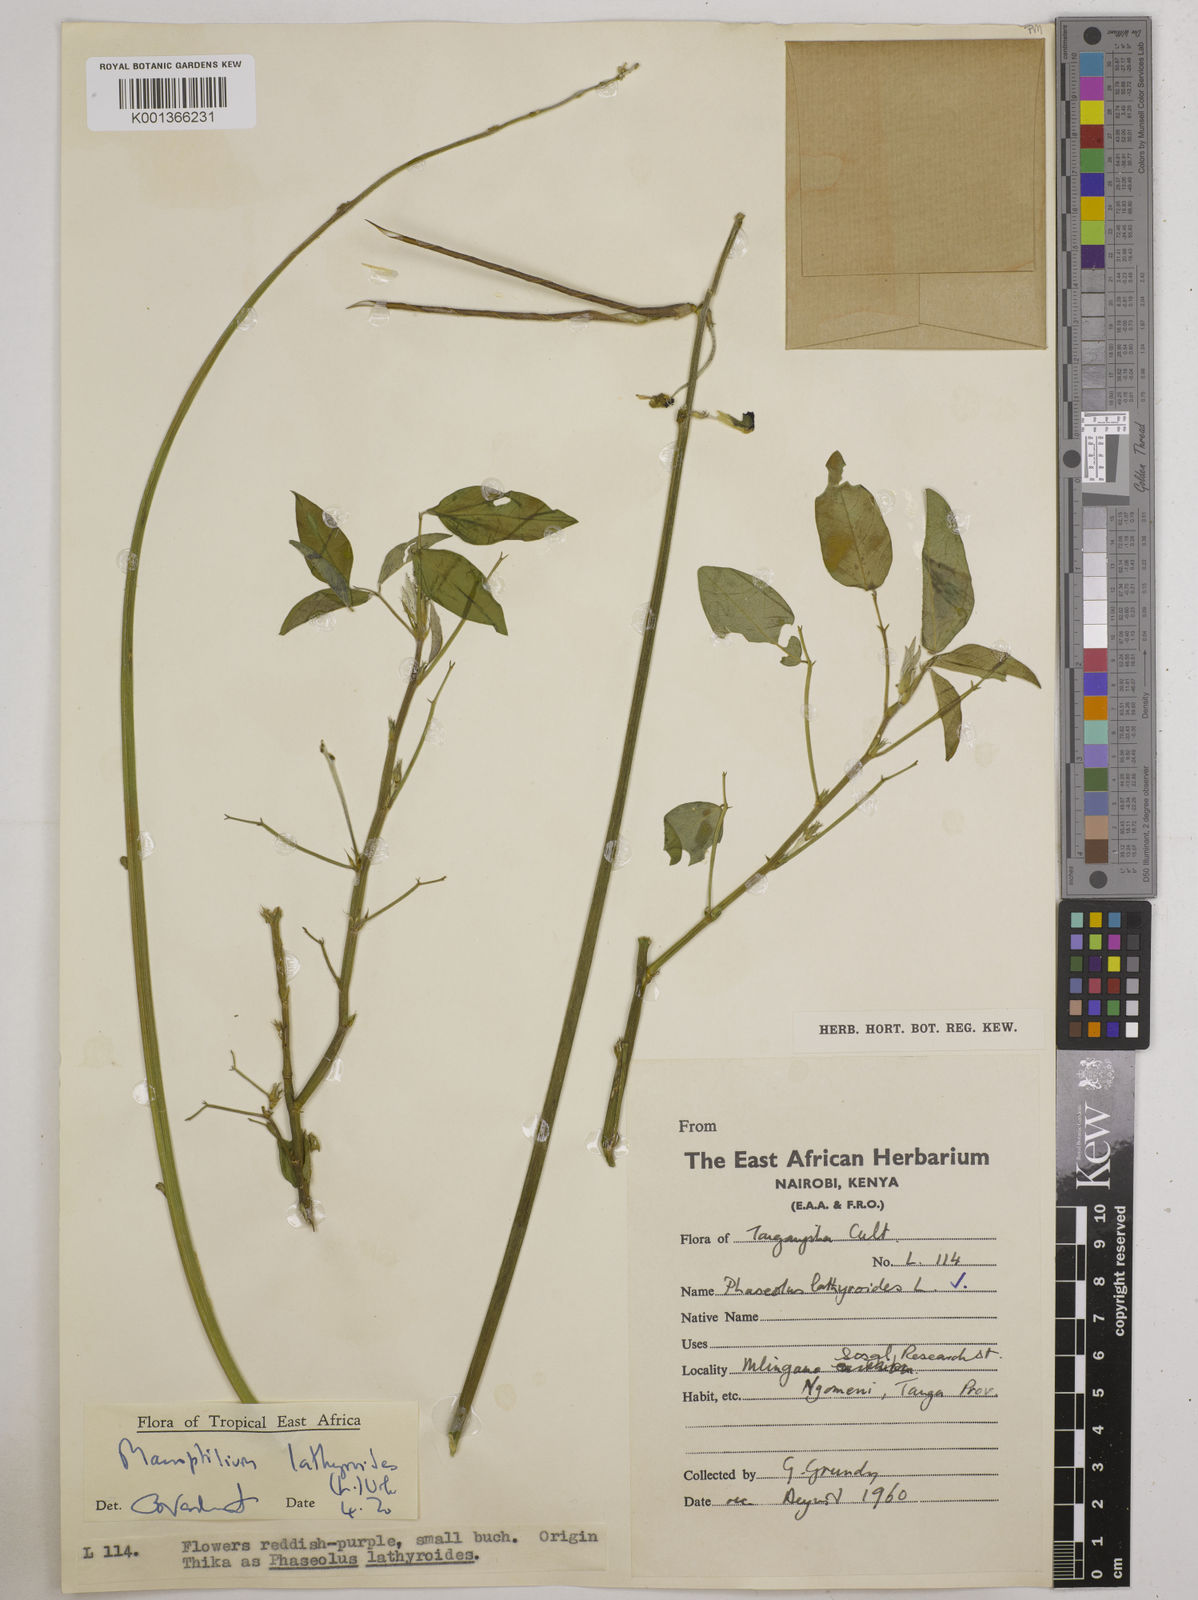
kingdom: Plantae
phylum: Tracheophyta
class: Magnoliopsida
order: Fabales
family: Fabaceae
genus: Macroptilium
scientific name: Macroptilium lathyroides
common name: Wild bushbean
